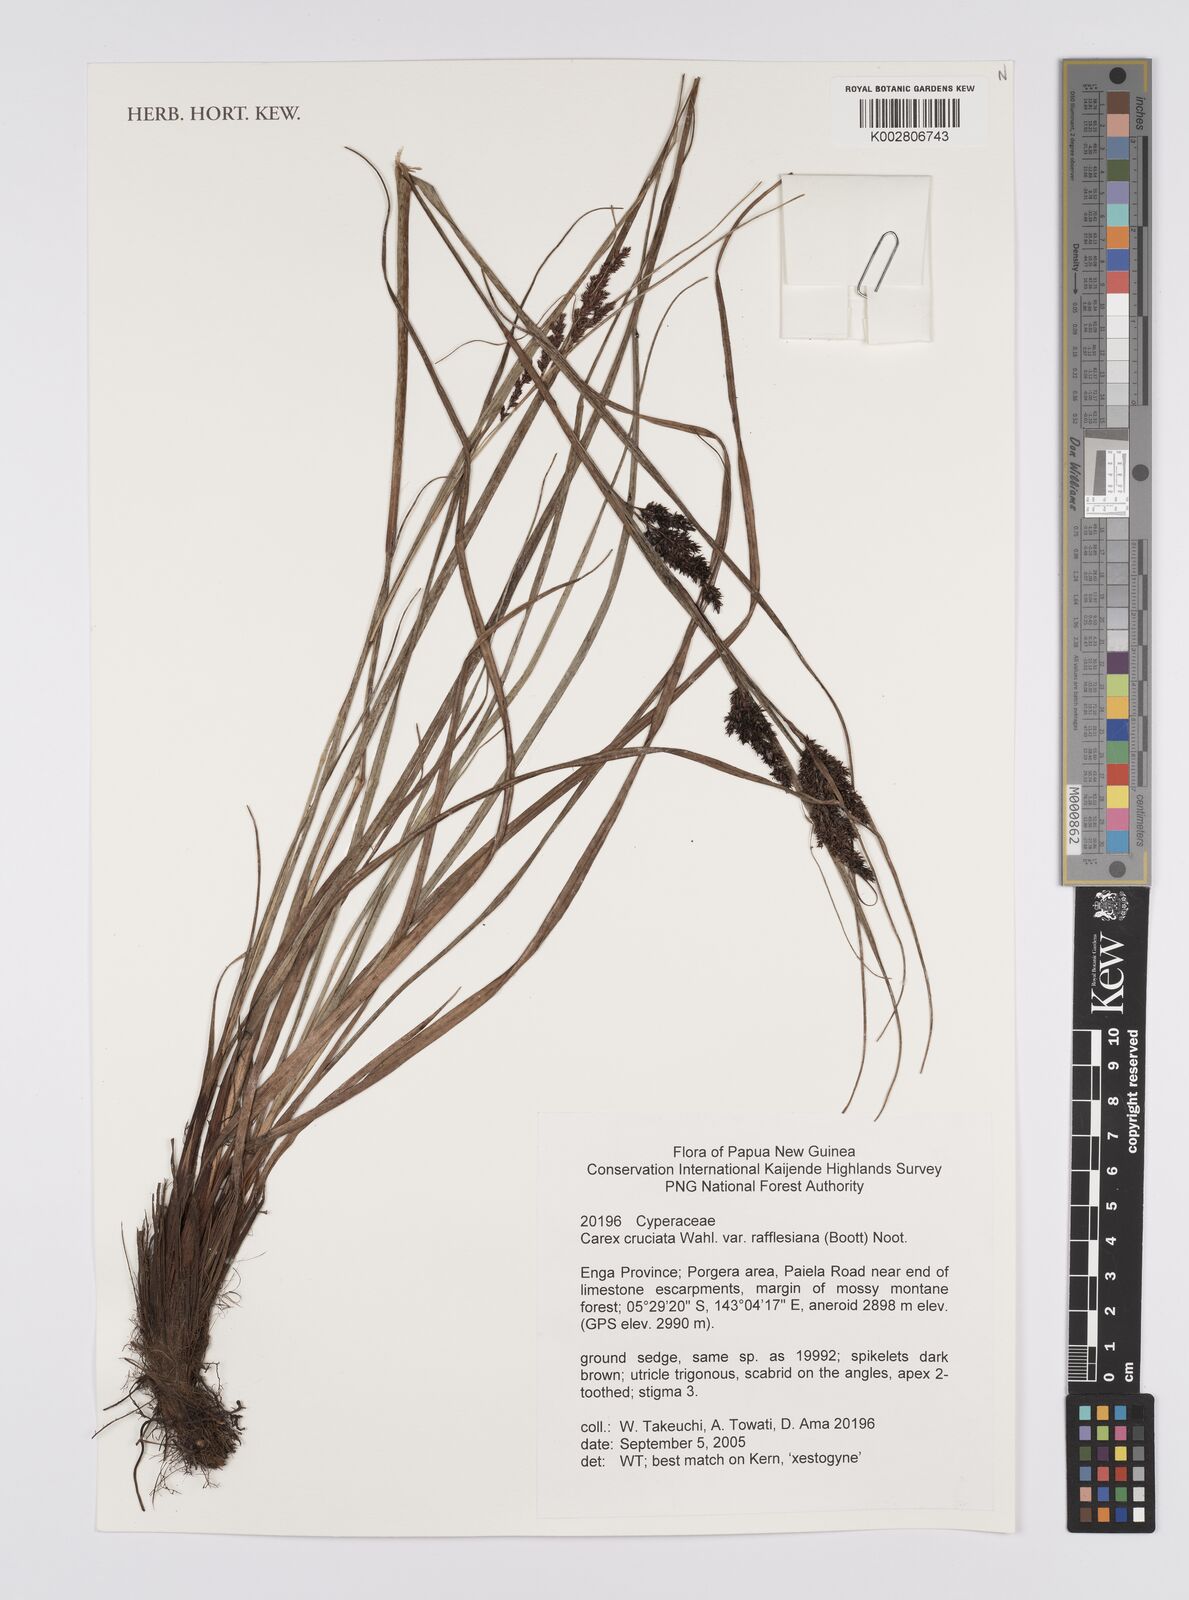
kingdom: Plantae
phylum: Tracheophyta
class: Liliopsida
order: Poales
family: Cyperaceae
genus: Carex
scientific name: Carex rafflesiana
